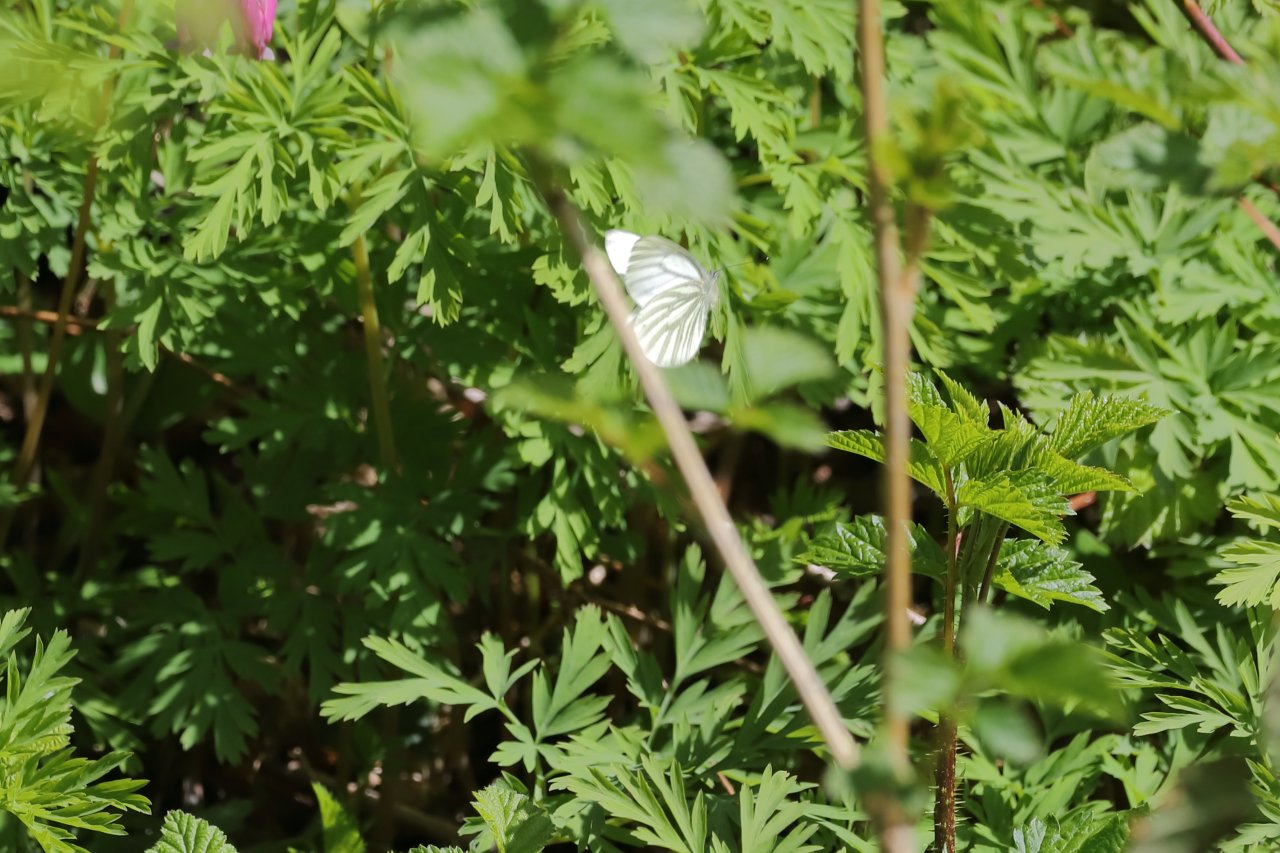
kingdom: Animalia
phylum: Arthropoda
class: Insecta
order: Lepidoptera
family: Pieridae
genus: Pieris
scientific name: Pieris marginalis
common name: Margined White
